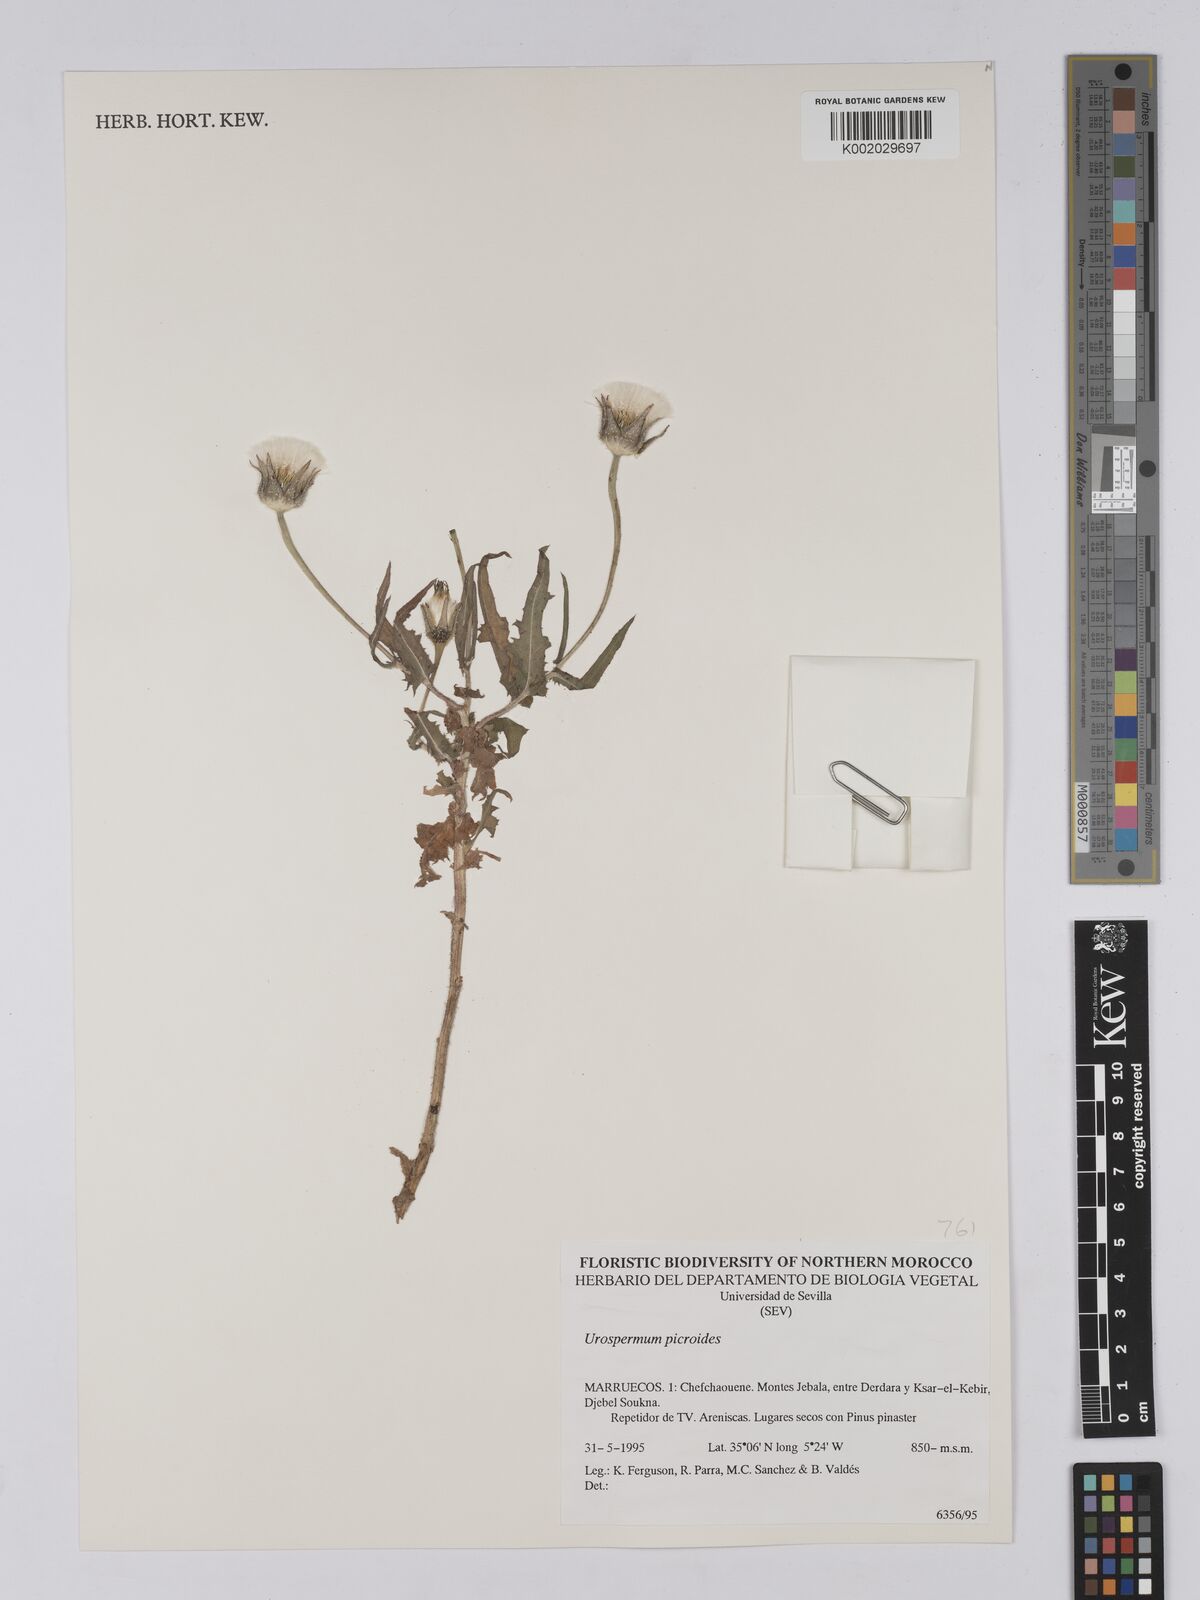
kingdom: Plantae
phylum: Tracheophyta
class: Magnoliopsida
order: Asterales
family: Asteraceae
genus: Urospermum
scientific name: Urospermum picroides
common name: False hawkbit
